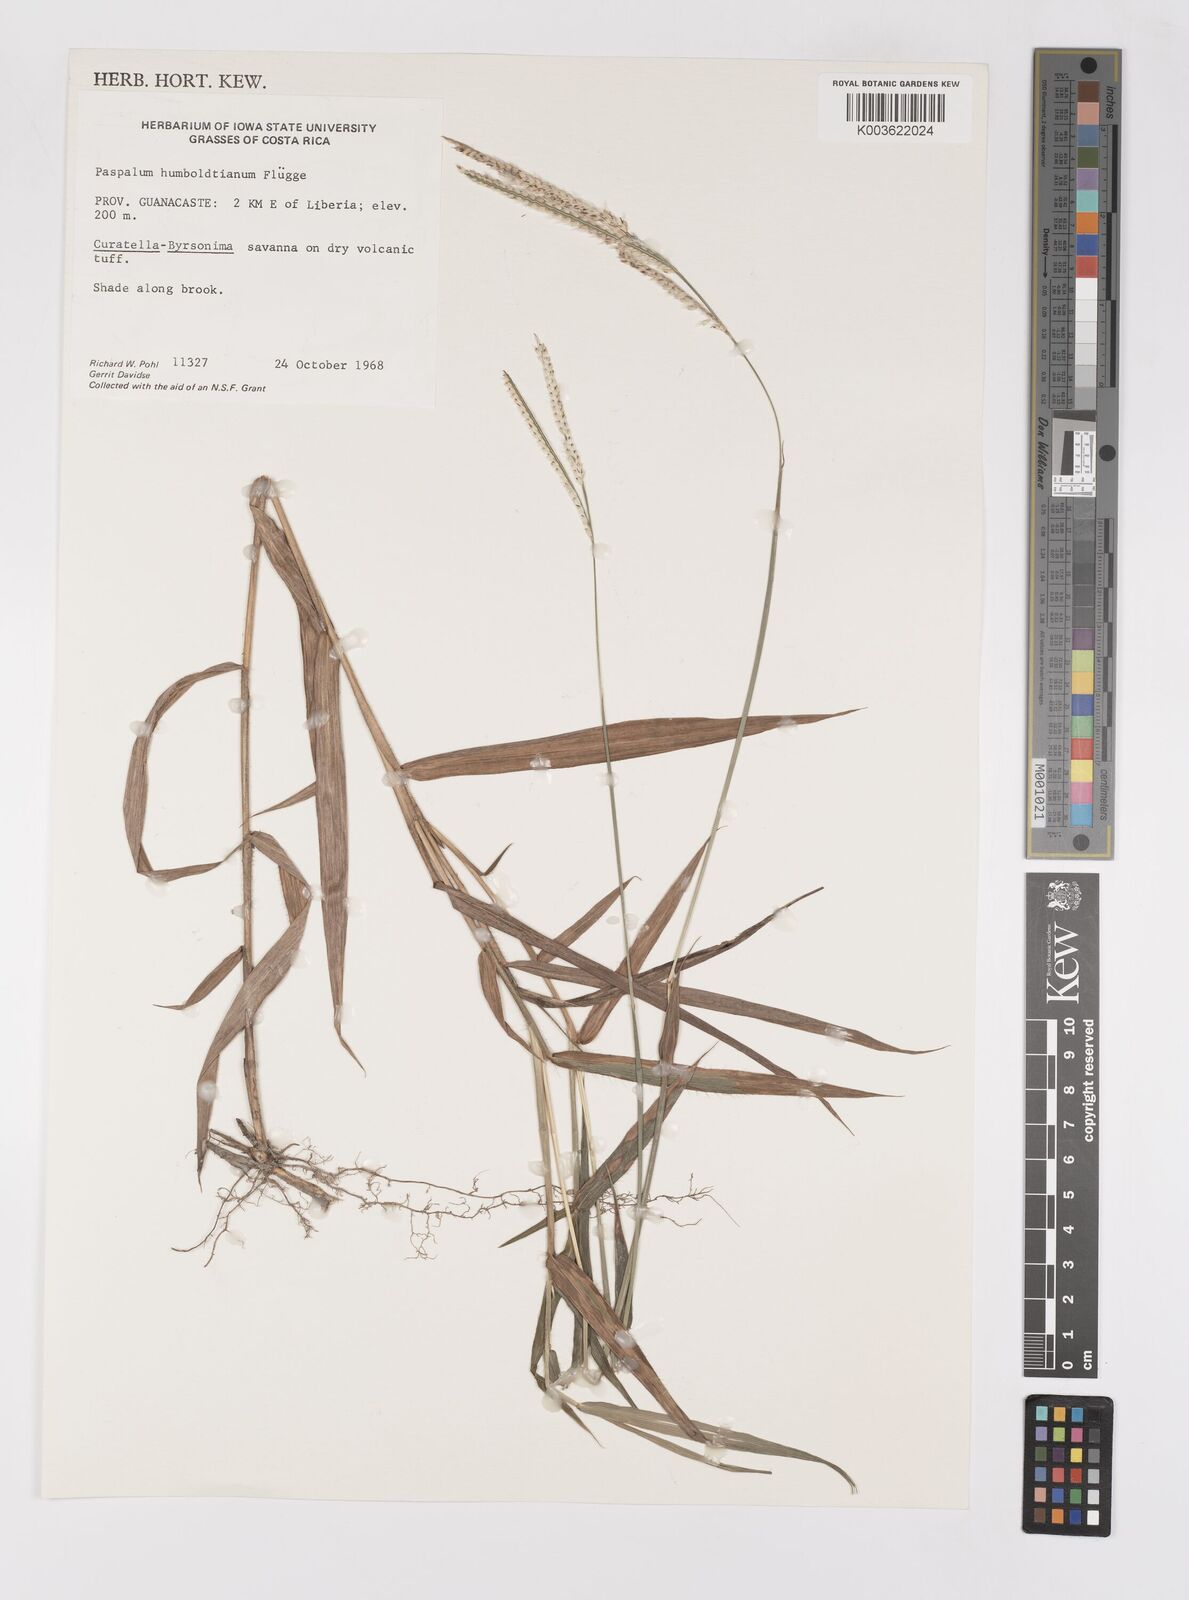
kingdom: Plantae
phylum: Tracheophyta
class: Liliopsida
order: Poales
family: Poaceae
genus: Paspalum
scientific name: Paspalum humboldtianum
